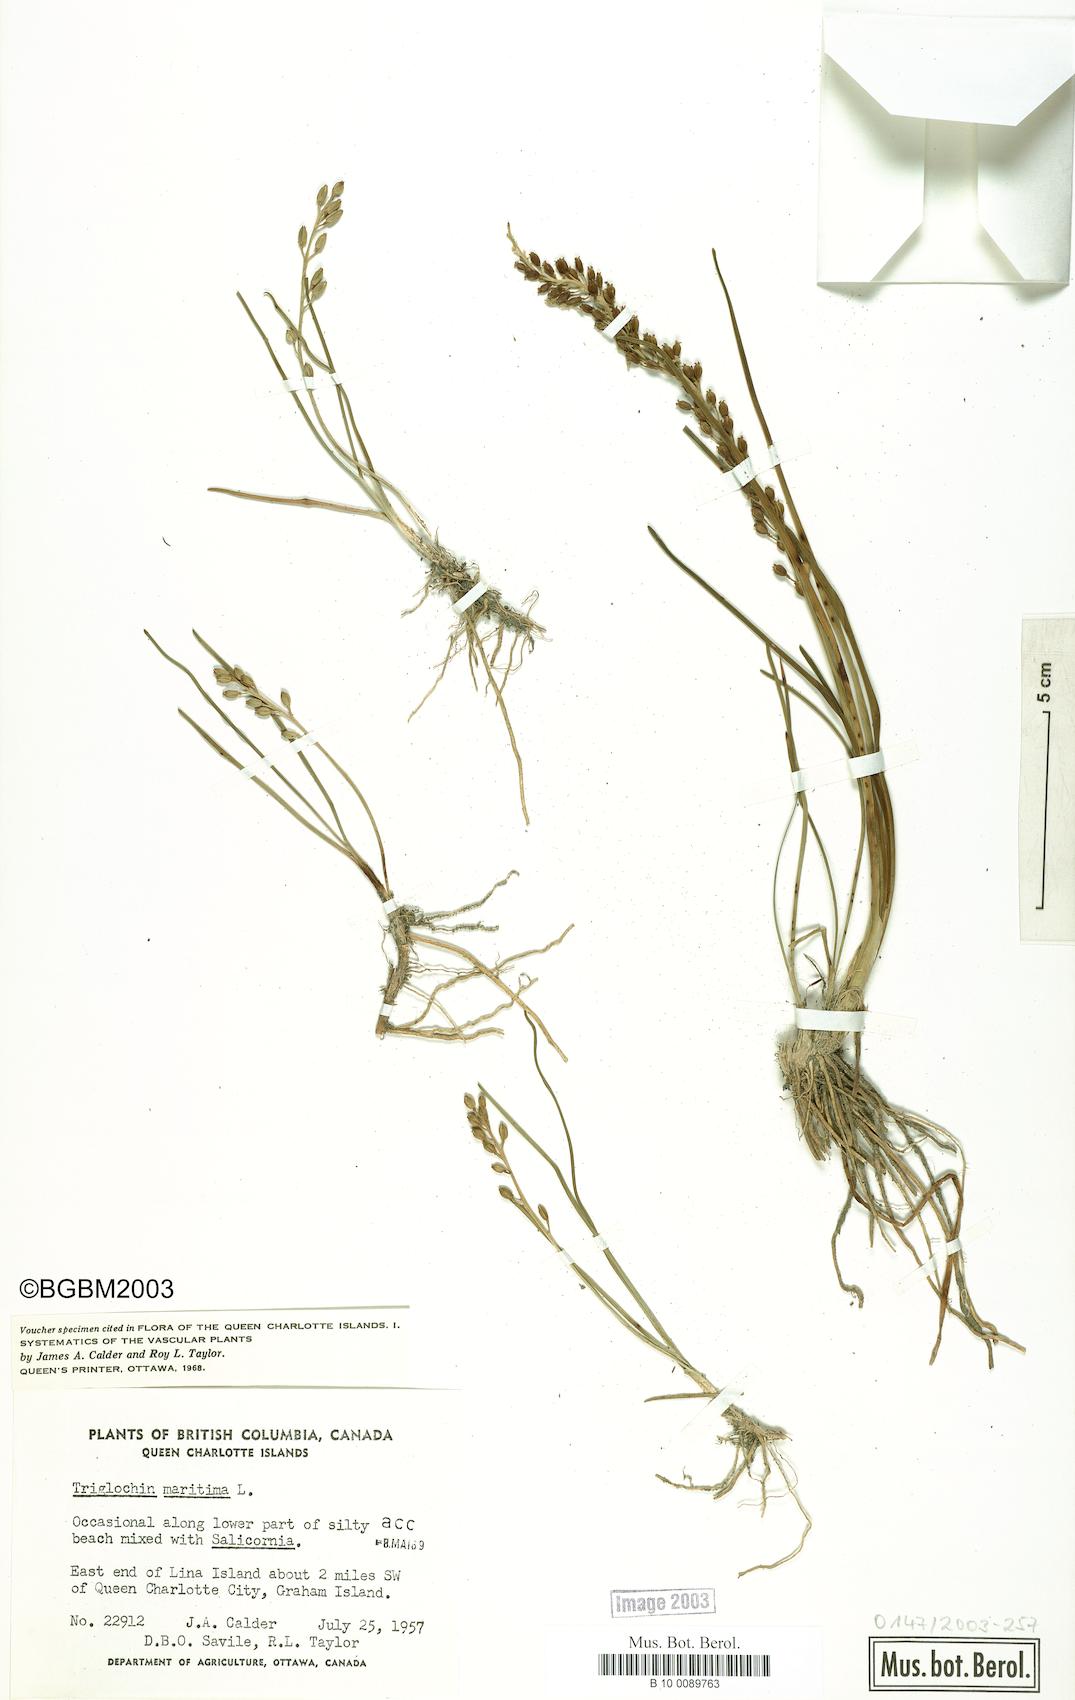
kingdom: Plantae
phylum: Tracheophyta
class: Liliopsida
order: Alismatales
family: Juncaginaceae
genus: Triglochin
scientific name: Triglochin maritima
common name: Sea arrowgrass
